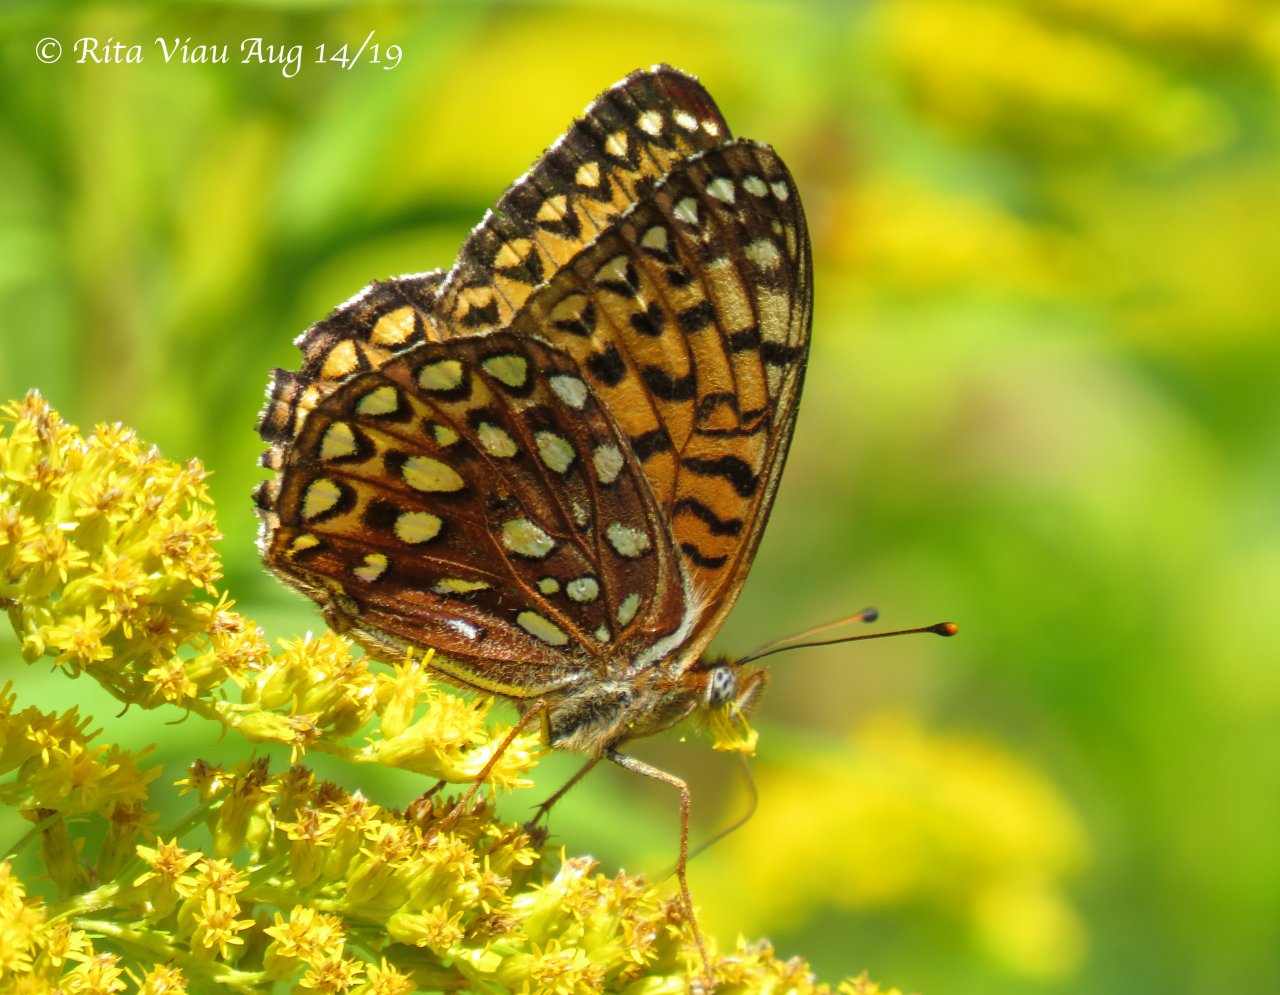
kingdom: Animalia
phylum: Arthropoda
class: Insecta
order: Lepidoptera
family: Nymphalidae
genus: Speyeria
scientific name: Speyeria atlantis
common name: Atlantis Fritillary
